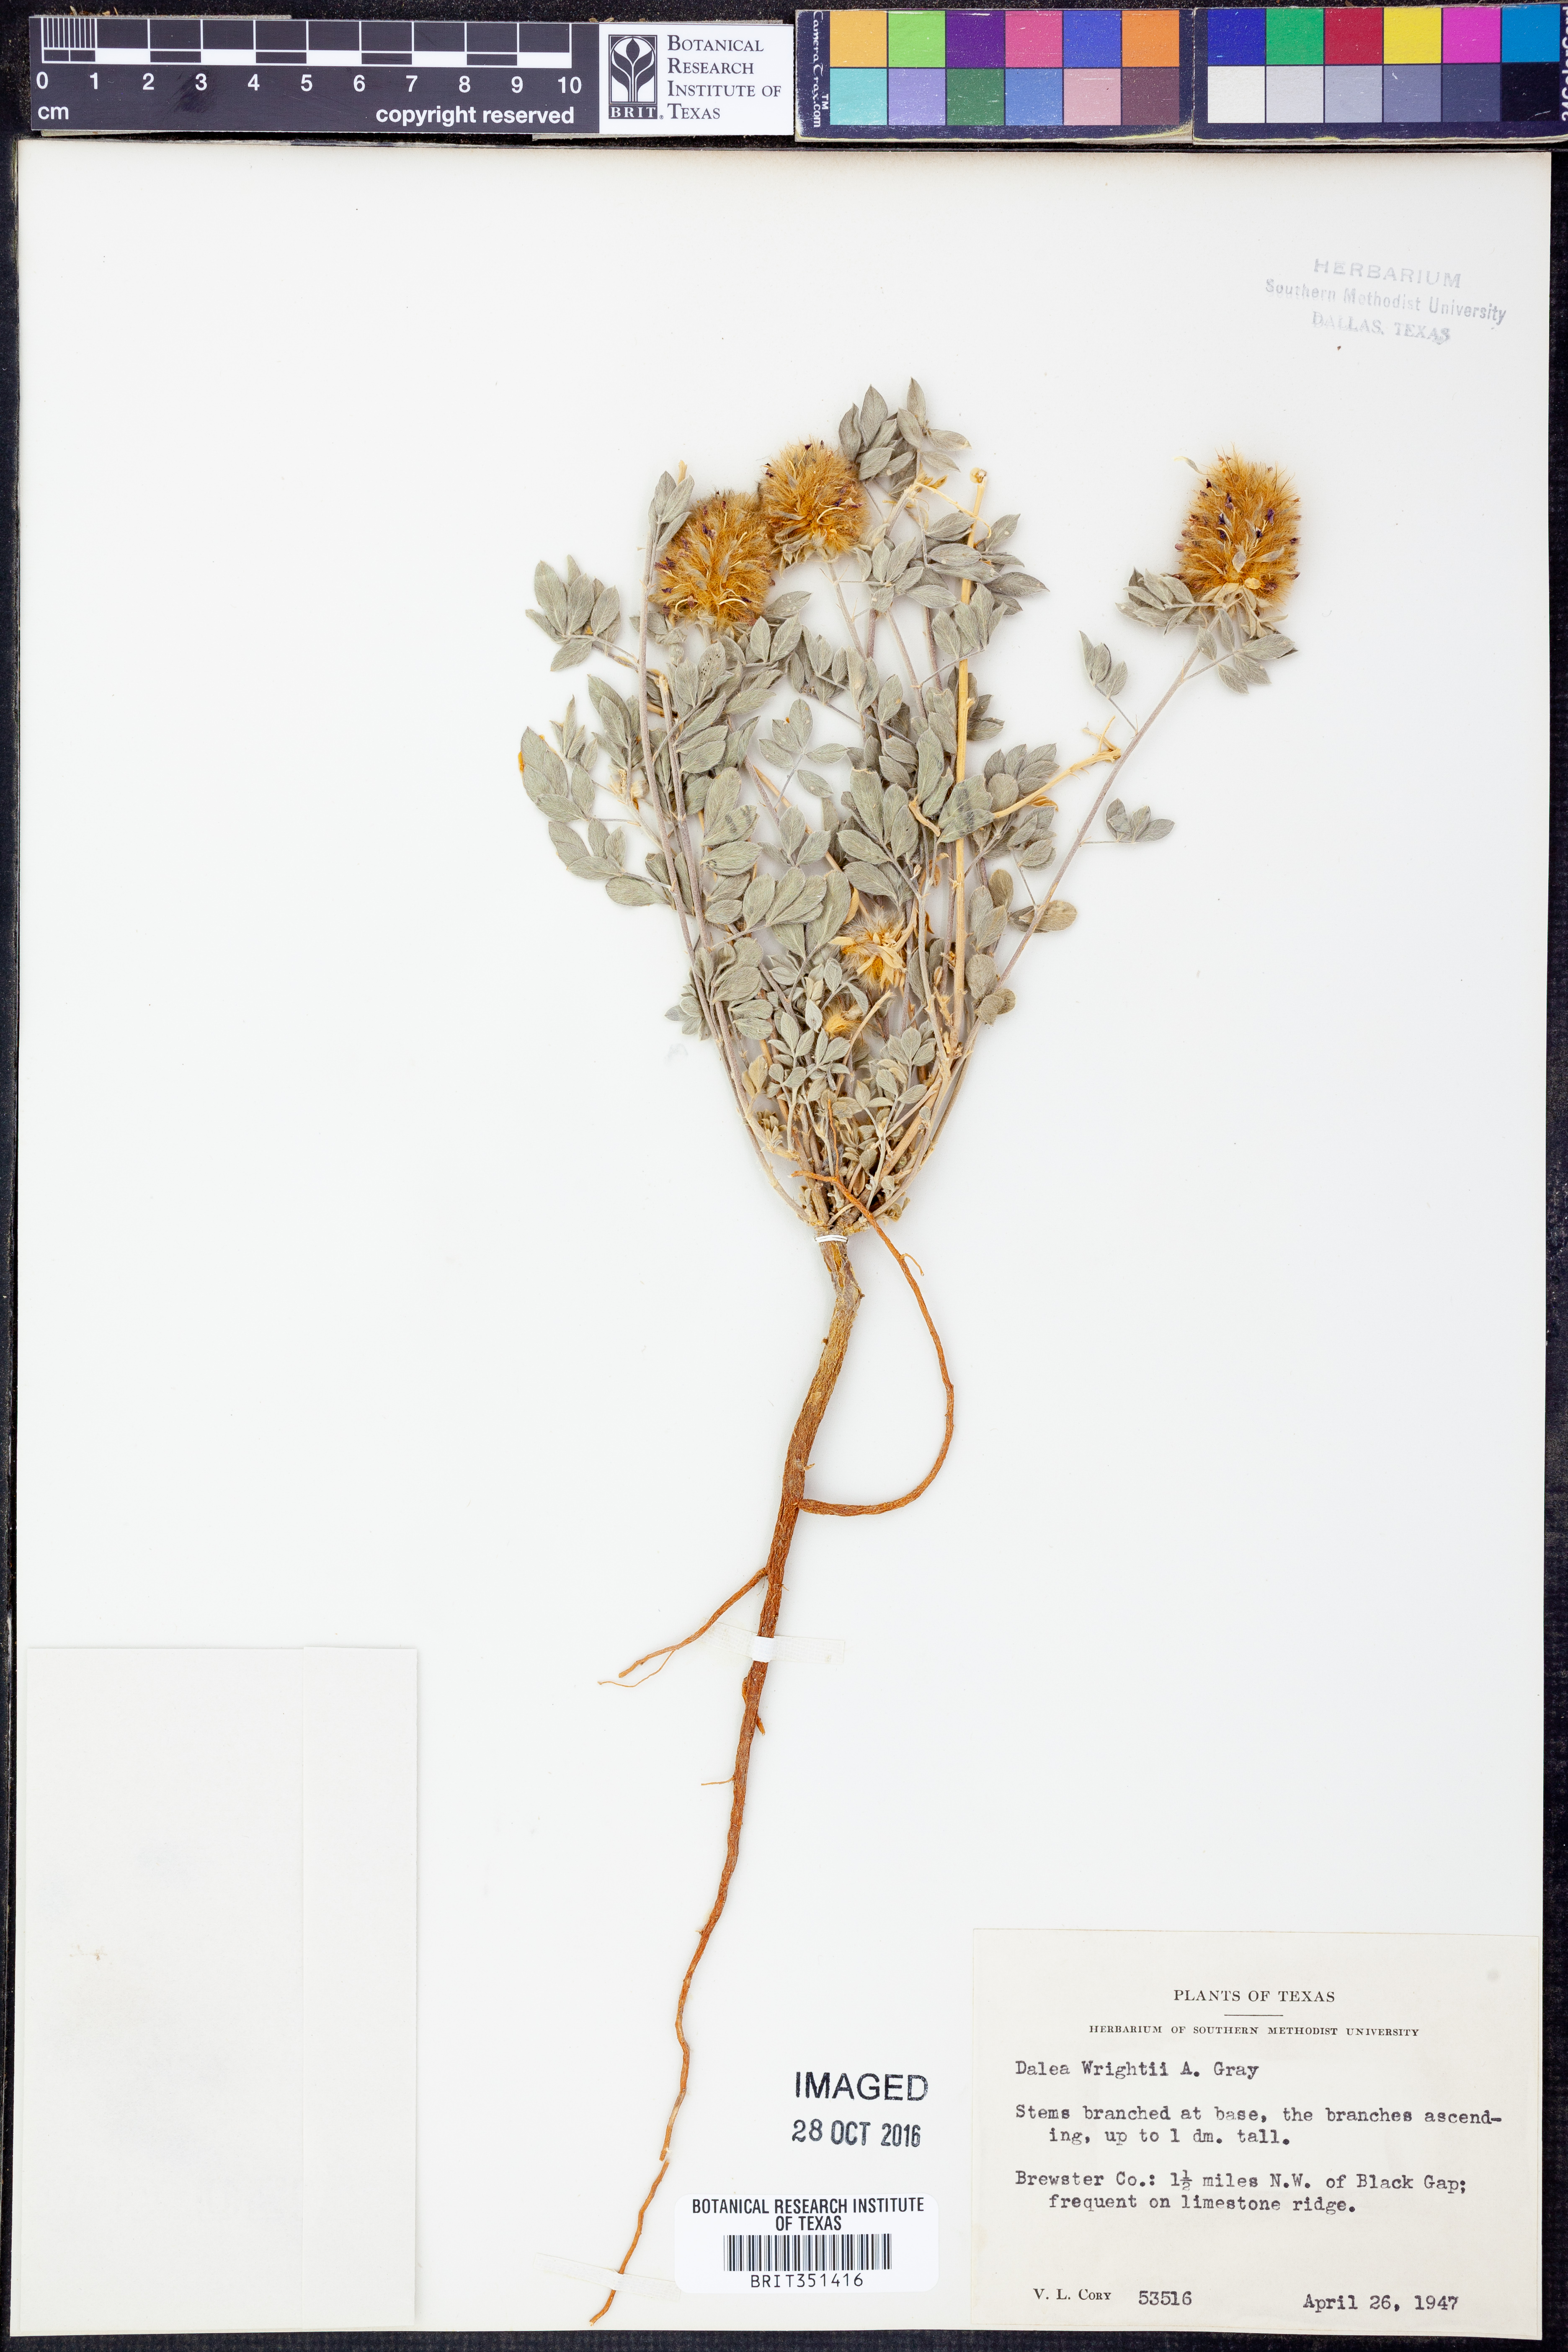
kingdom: Plantae
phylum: Tracheophyta
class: Magnoliopsida
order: Fabales
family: Fabaceae
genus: Dalea
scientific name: Dalea wrightii
